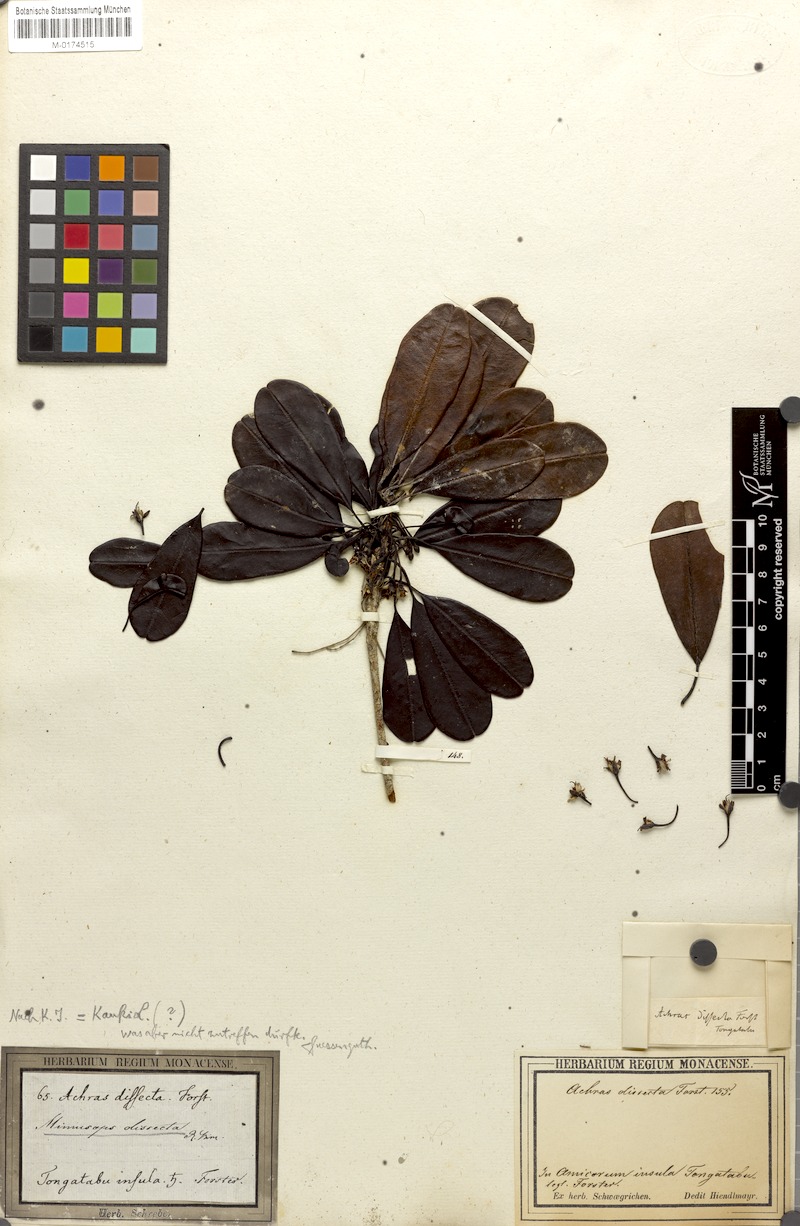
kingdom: Plantae
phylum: Tracheophyta
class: Magnoliopsida
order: Ericales
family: Sapotaceae
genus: Manilkara
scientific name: Manilkara dissecta
